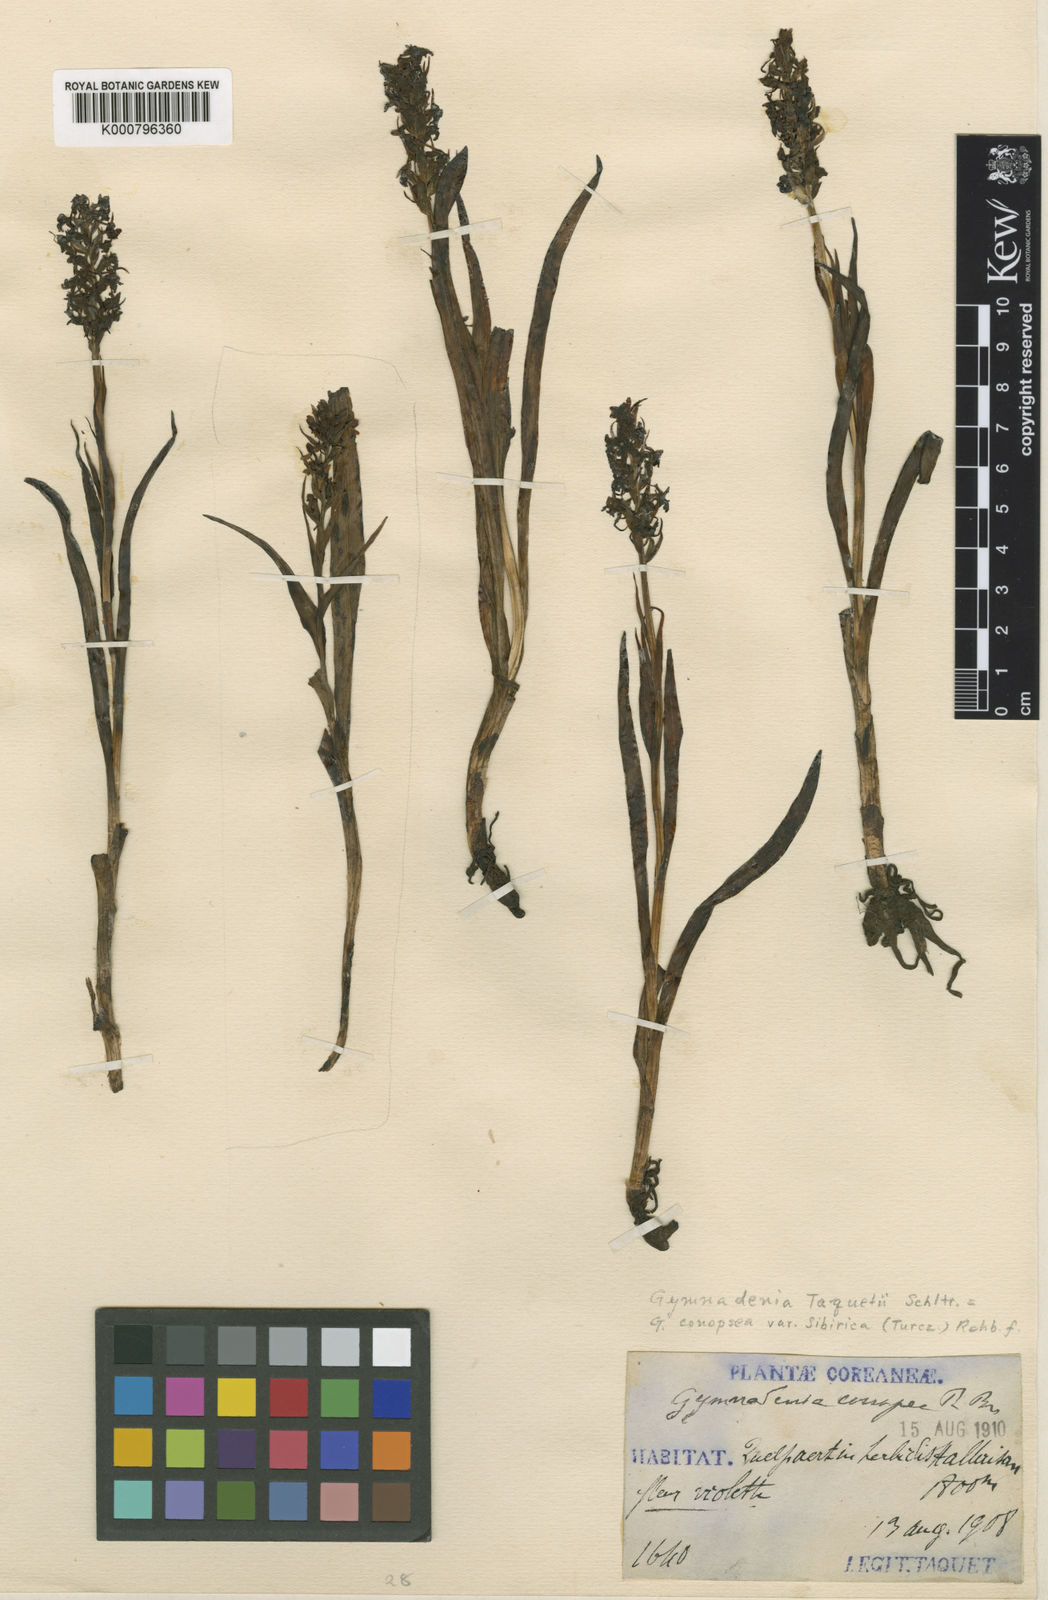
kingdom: Plantae
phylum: Tracheophyta
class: Liliopsida
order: Asparagales
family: Orchidaceae
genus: Gymnadenia
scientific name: Gymnadenia conopsea
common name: Fragrant orchid
